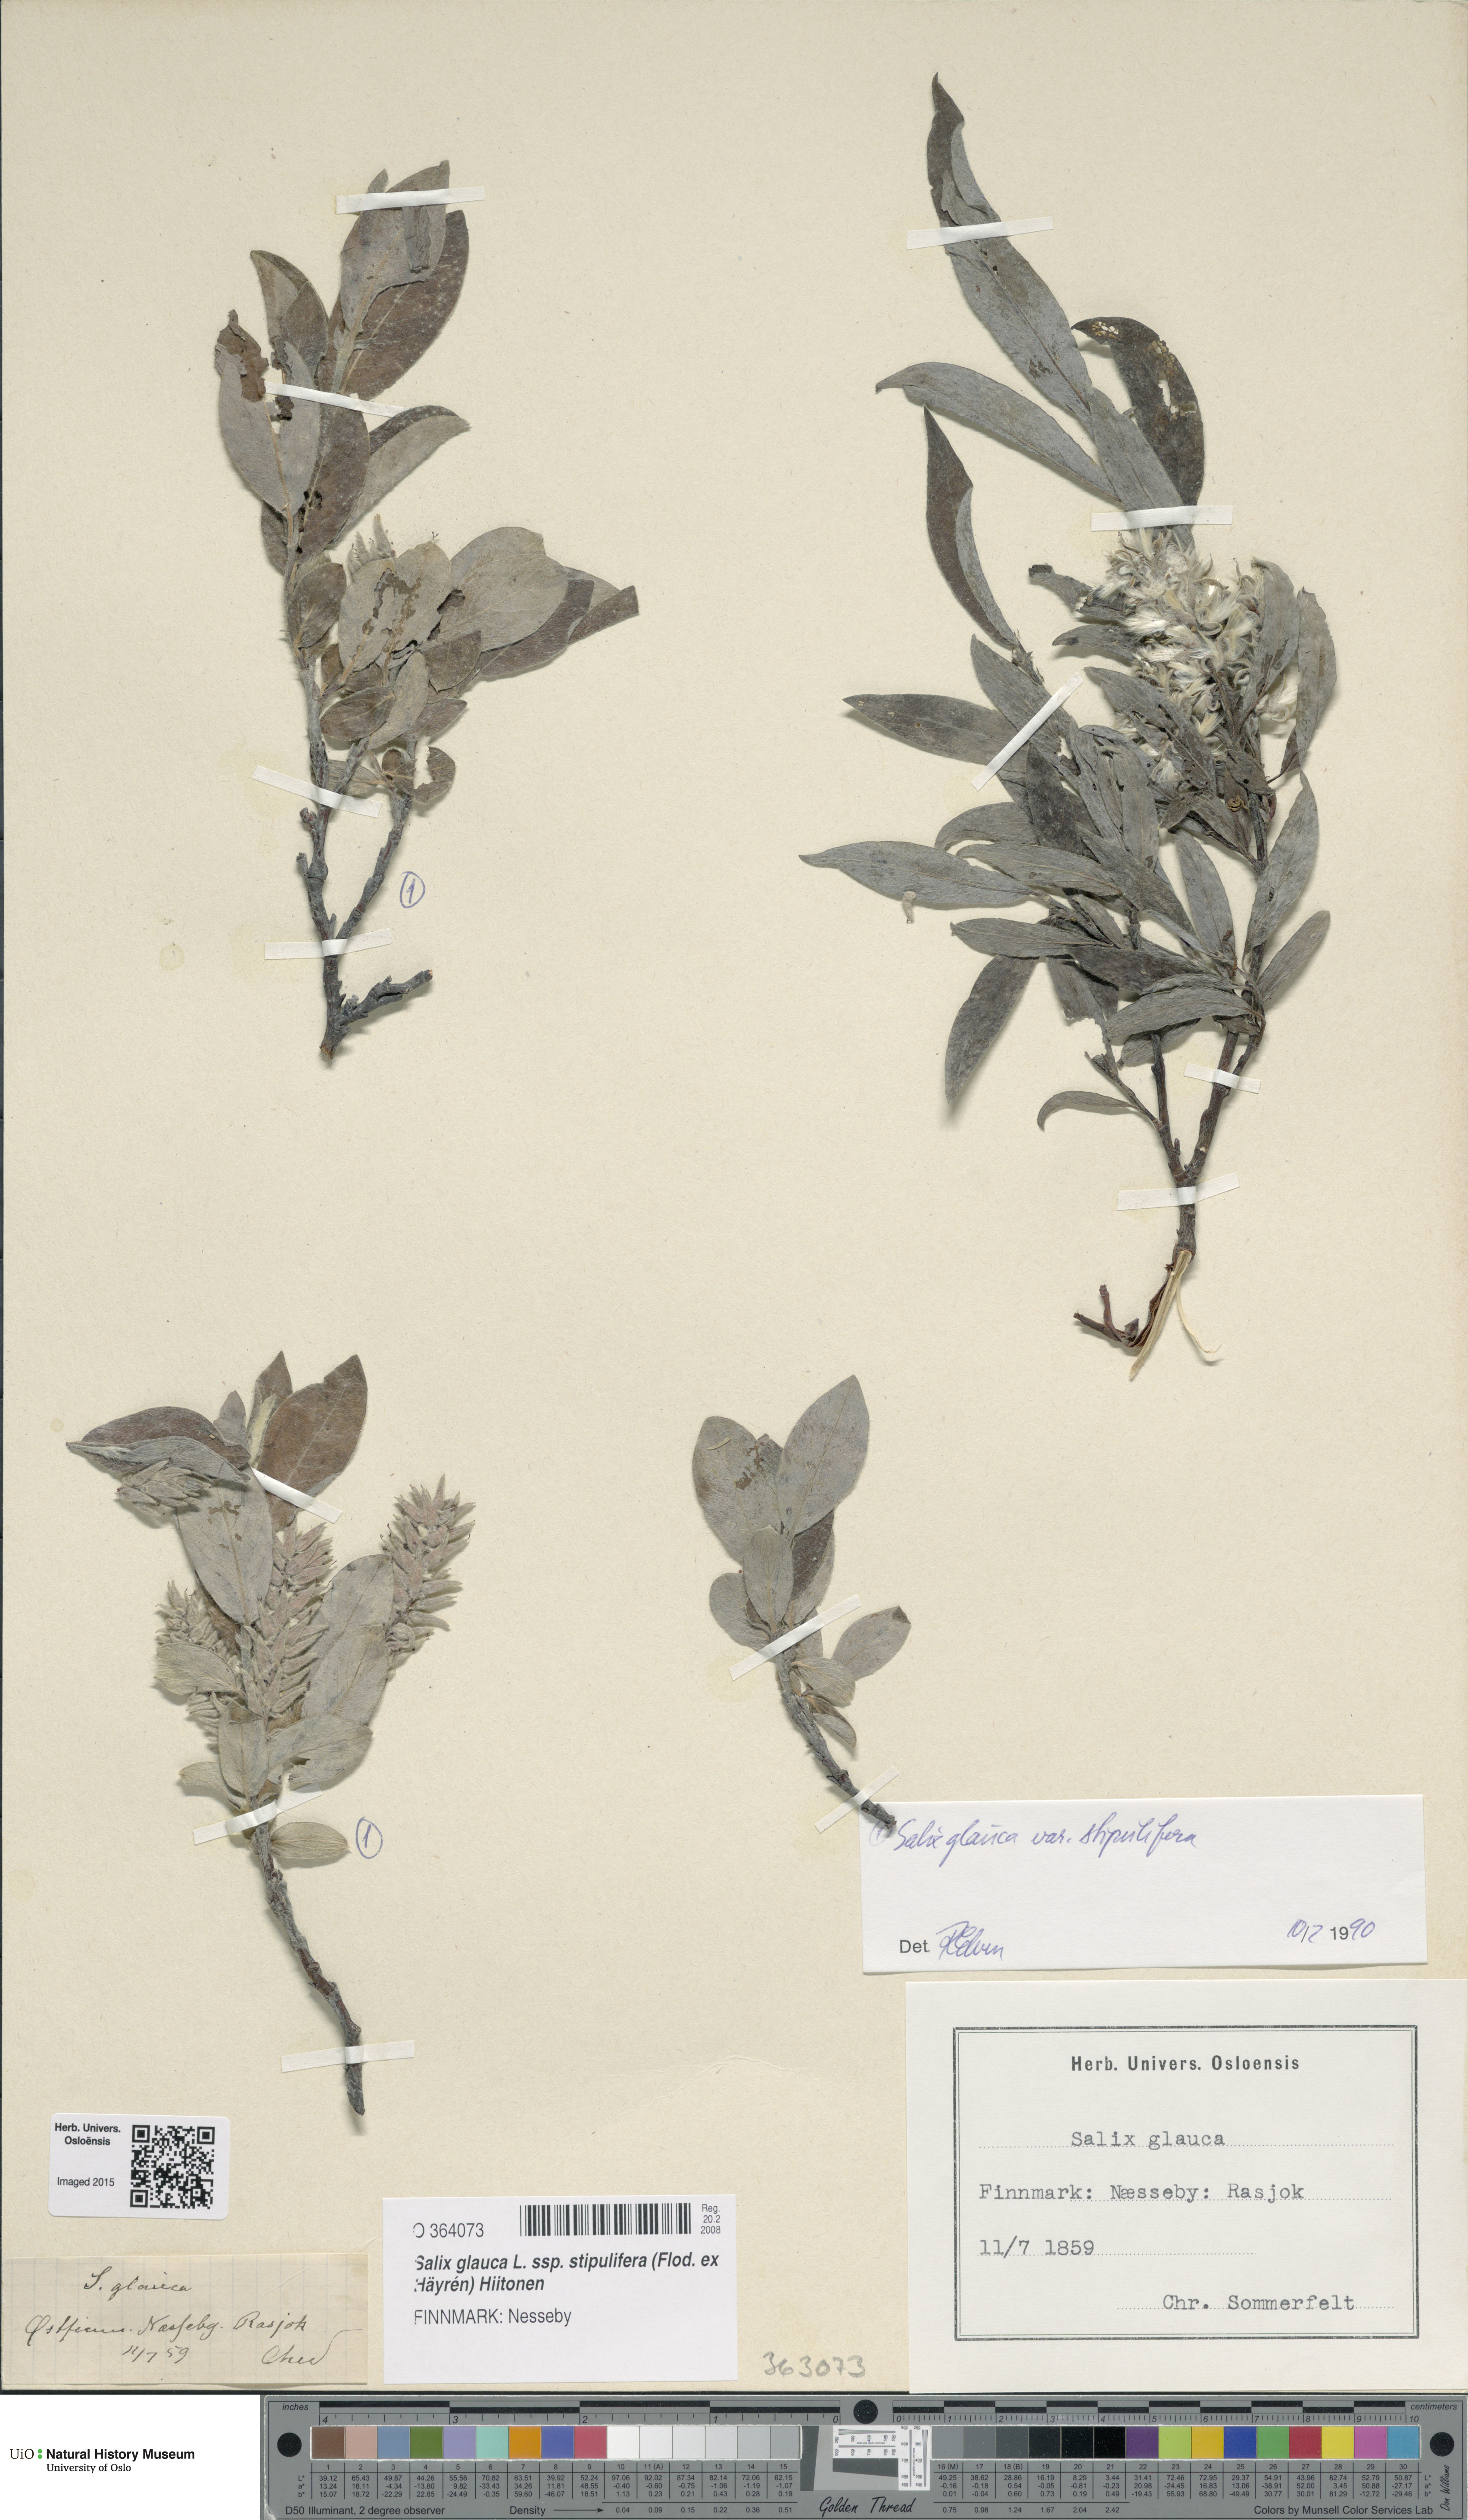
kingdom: Plantae
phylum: Tracheophyta
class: Magnoliopsida
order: Malpighiales
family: Salicaceae
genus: Salix
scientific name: Salix glauca
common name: Glaucous willow
